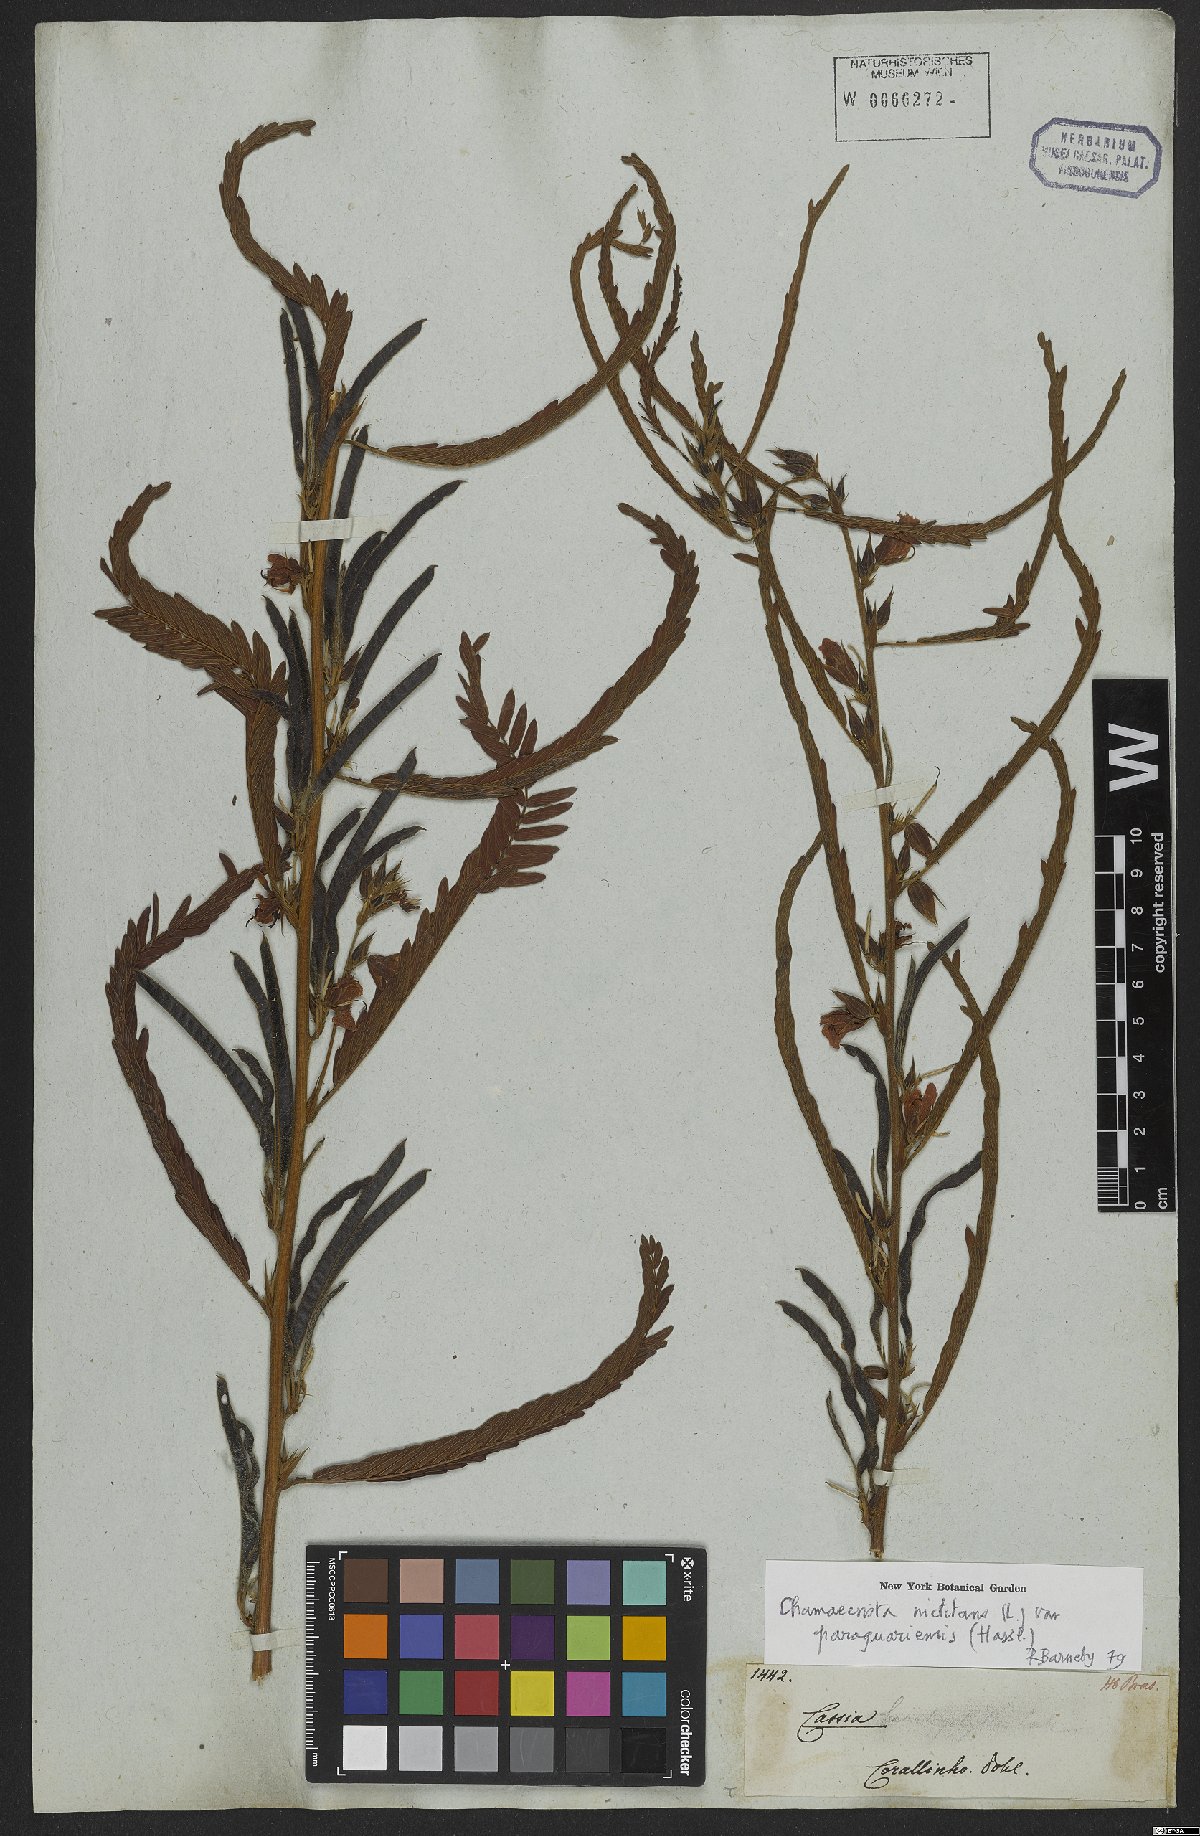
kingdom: Plantae
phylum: Tracheophyta
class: Magnoliopsida
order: Fabales
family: Fabaceae
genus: Chamaecrista
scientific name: Chamaecrista nictitans
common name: Sensitive cassia
